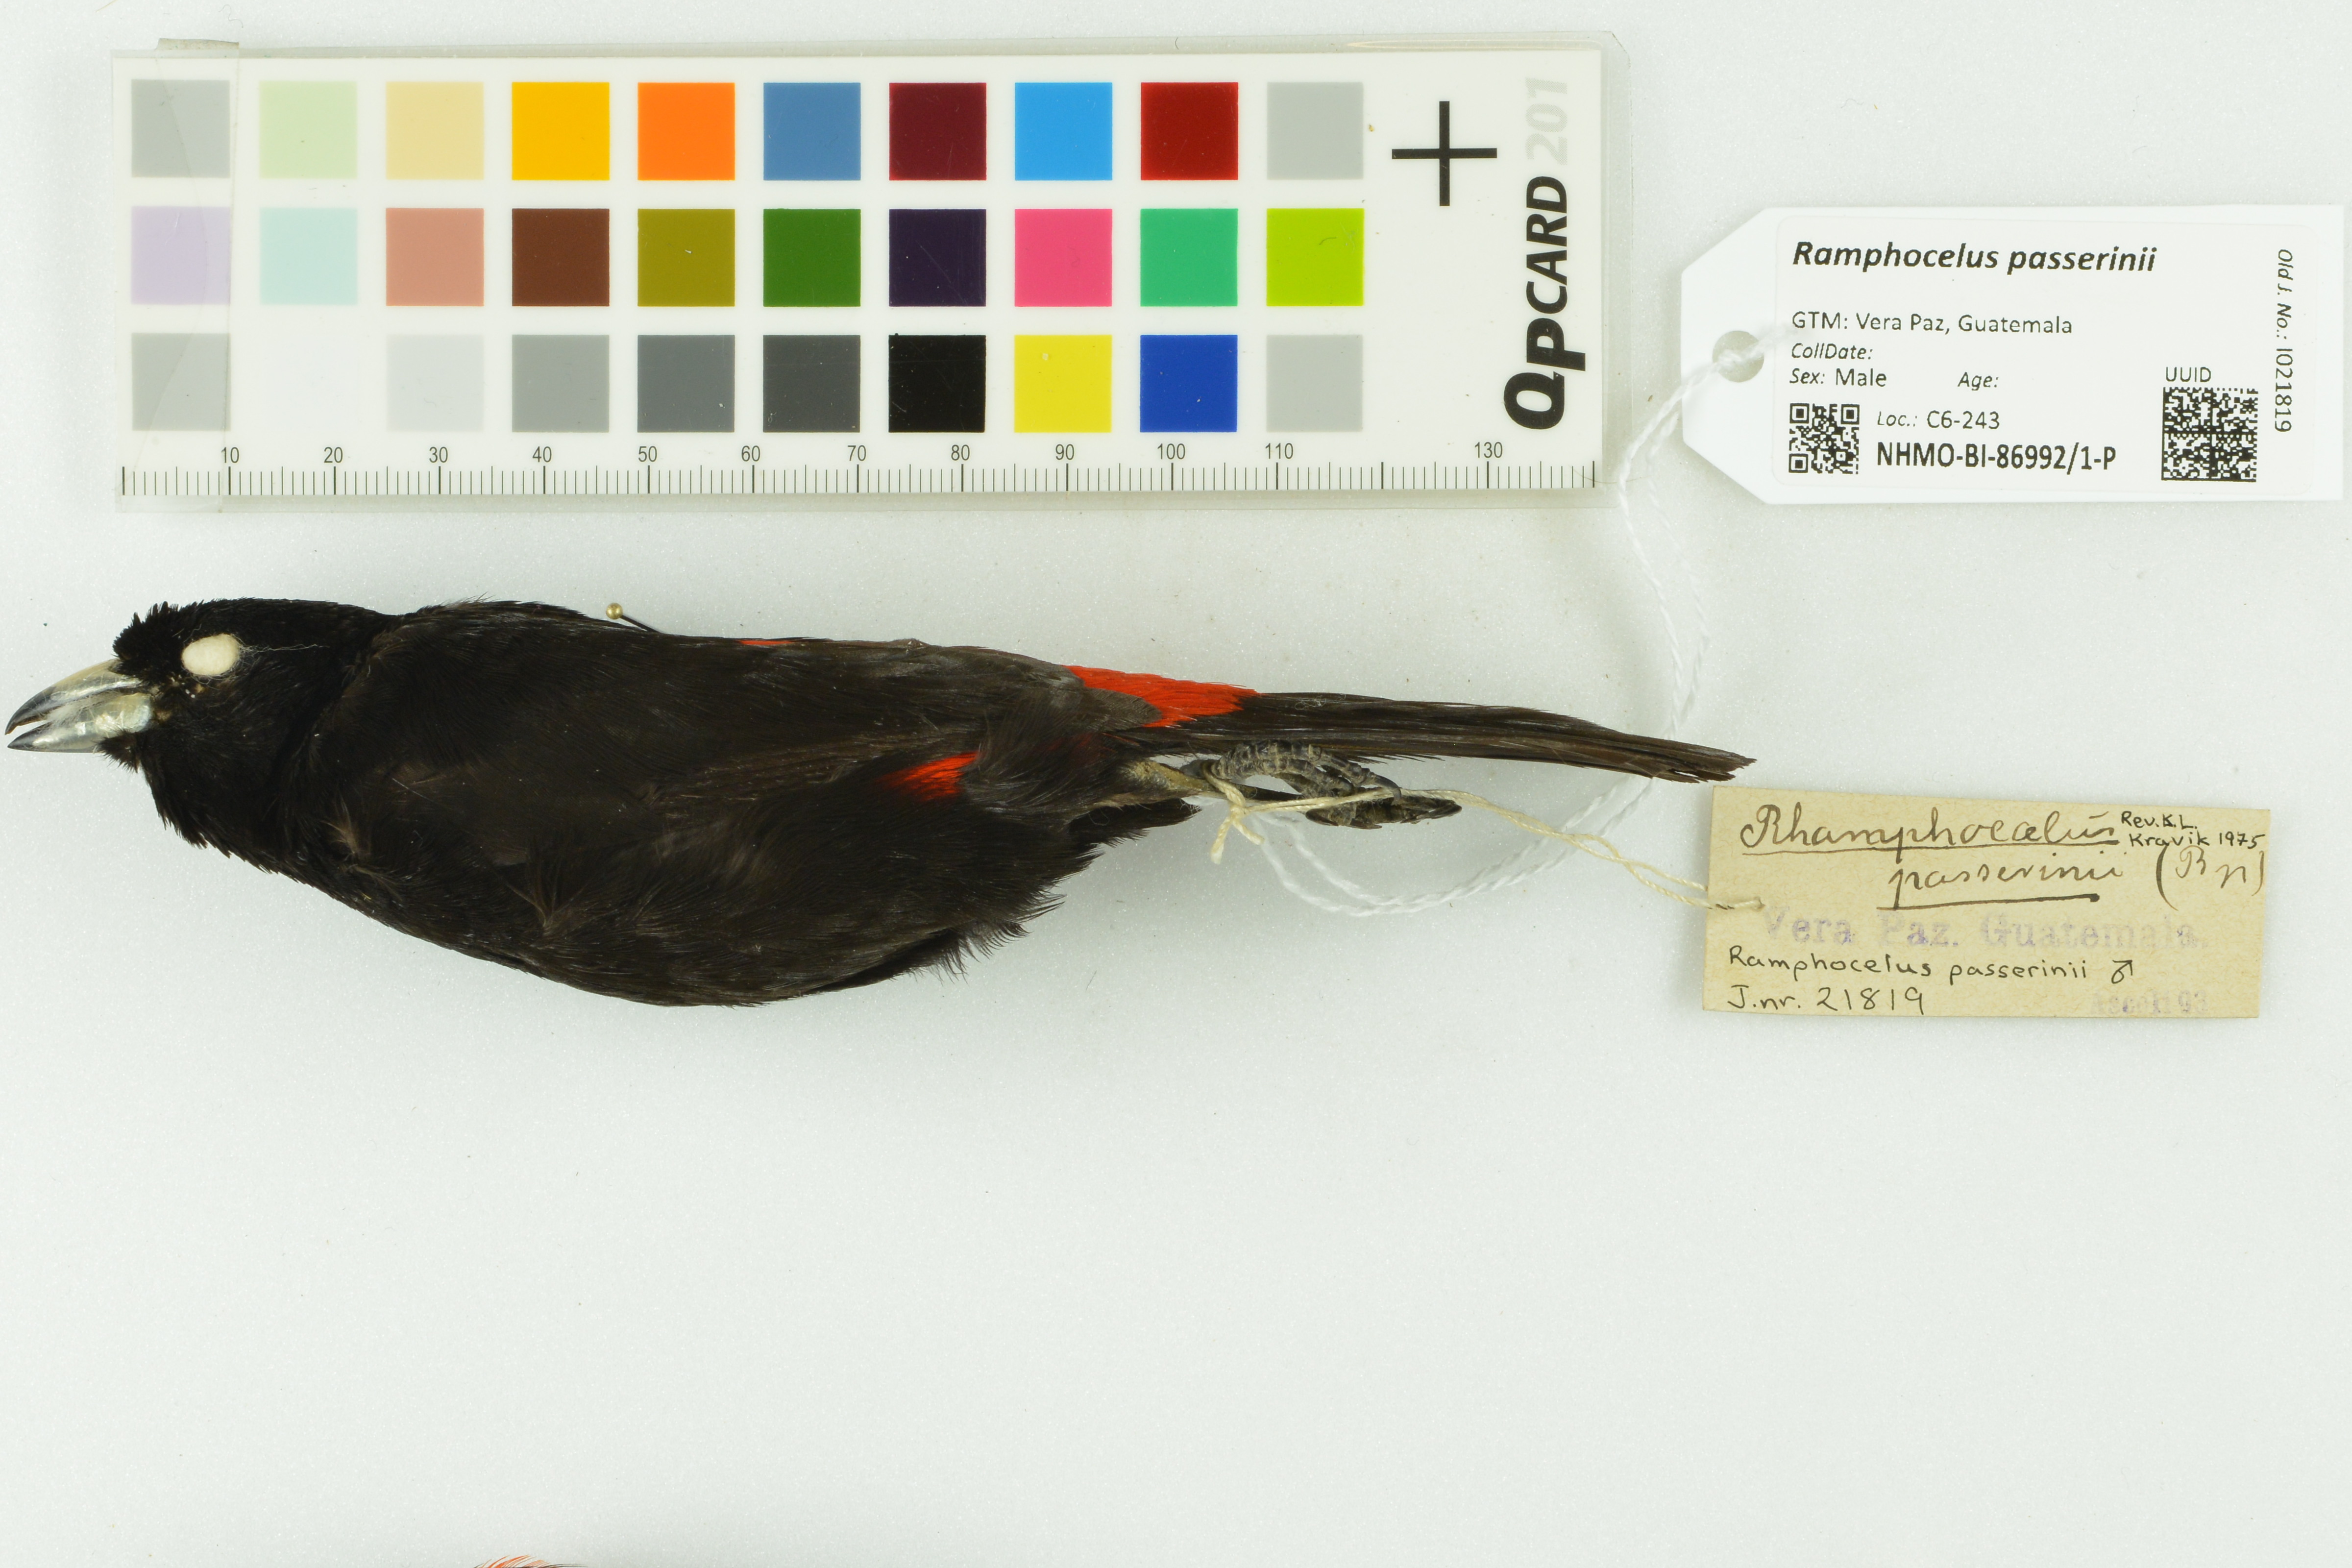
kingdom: Animalia
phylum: Chordata
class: Aves
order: Passeriformes
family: Thraupidae
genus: Ramphocelus
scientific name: Ramphocelus passerinii
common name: Passerini's tanager
